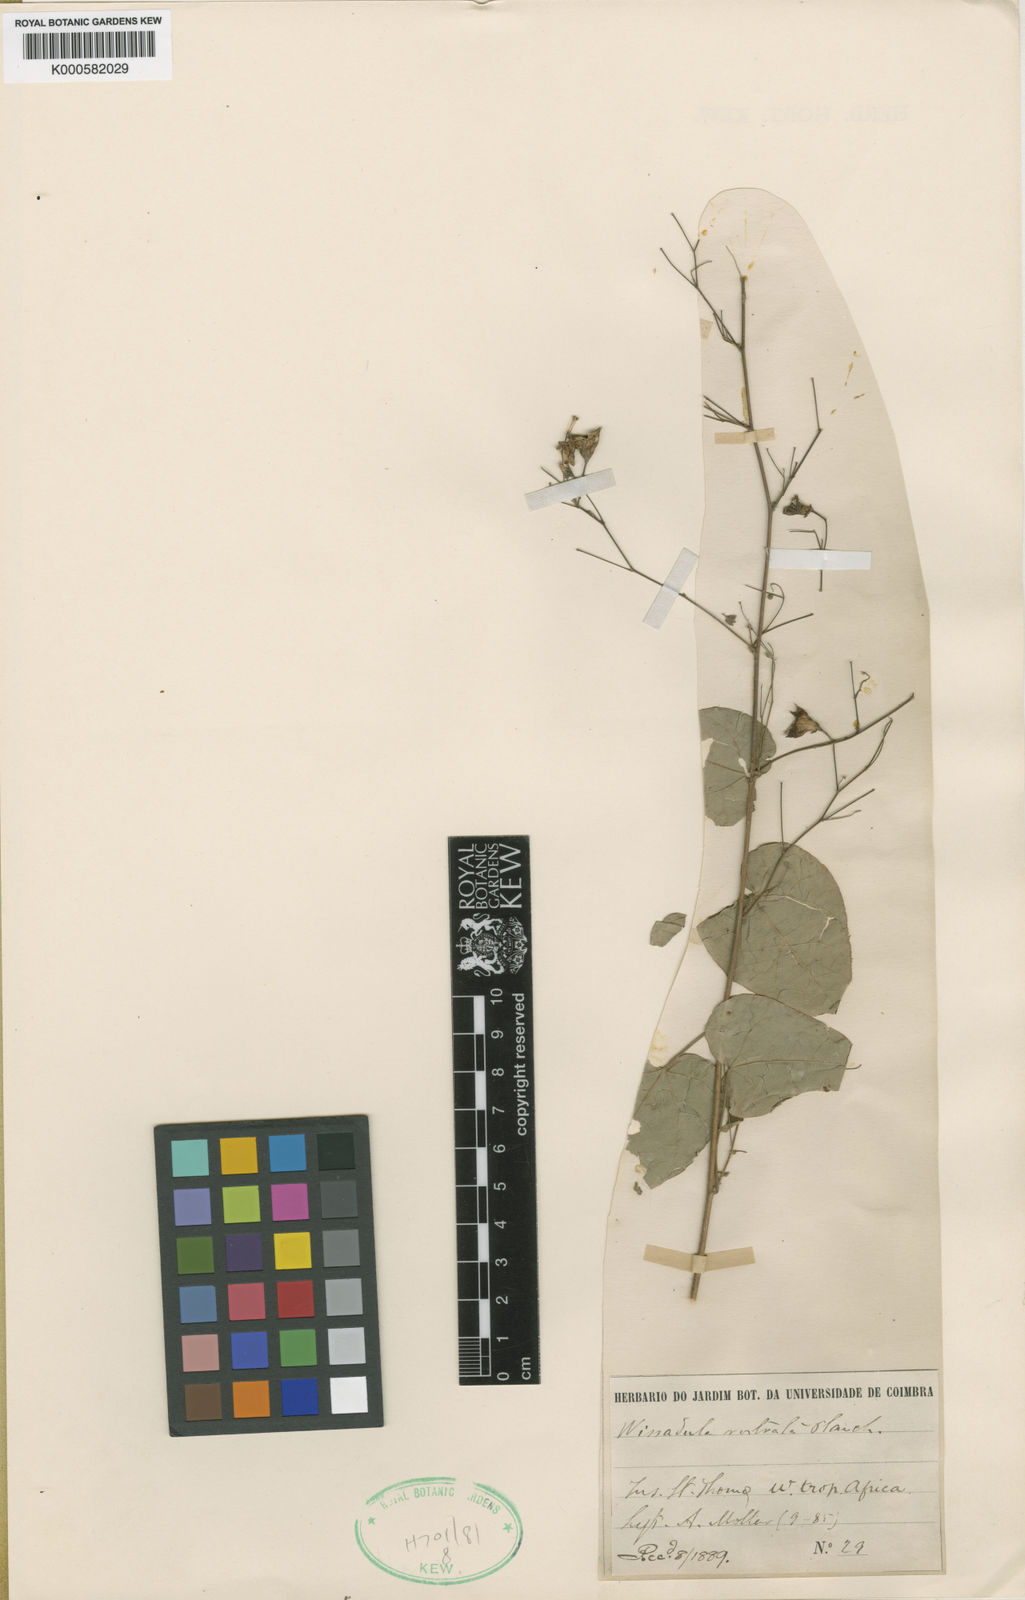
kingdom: Plantae
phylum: Tracheophyta
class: Magnoliopsida
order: Malvales
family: Malvaceae
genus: Wissadula
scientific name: Wissadula
